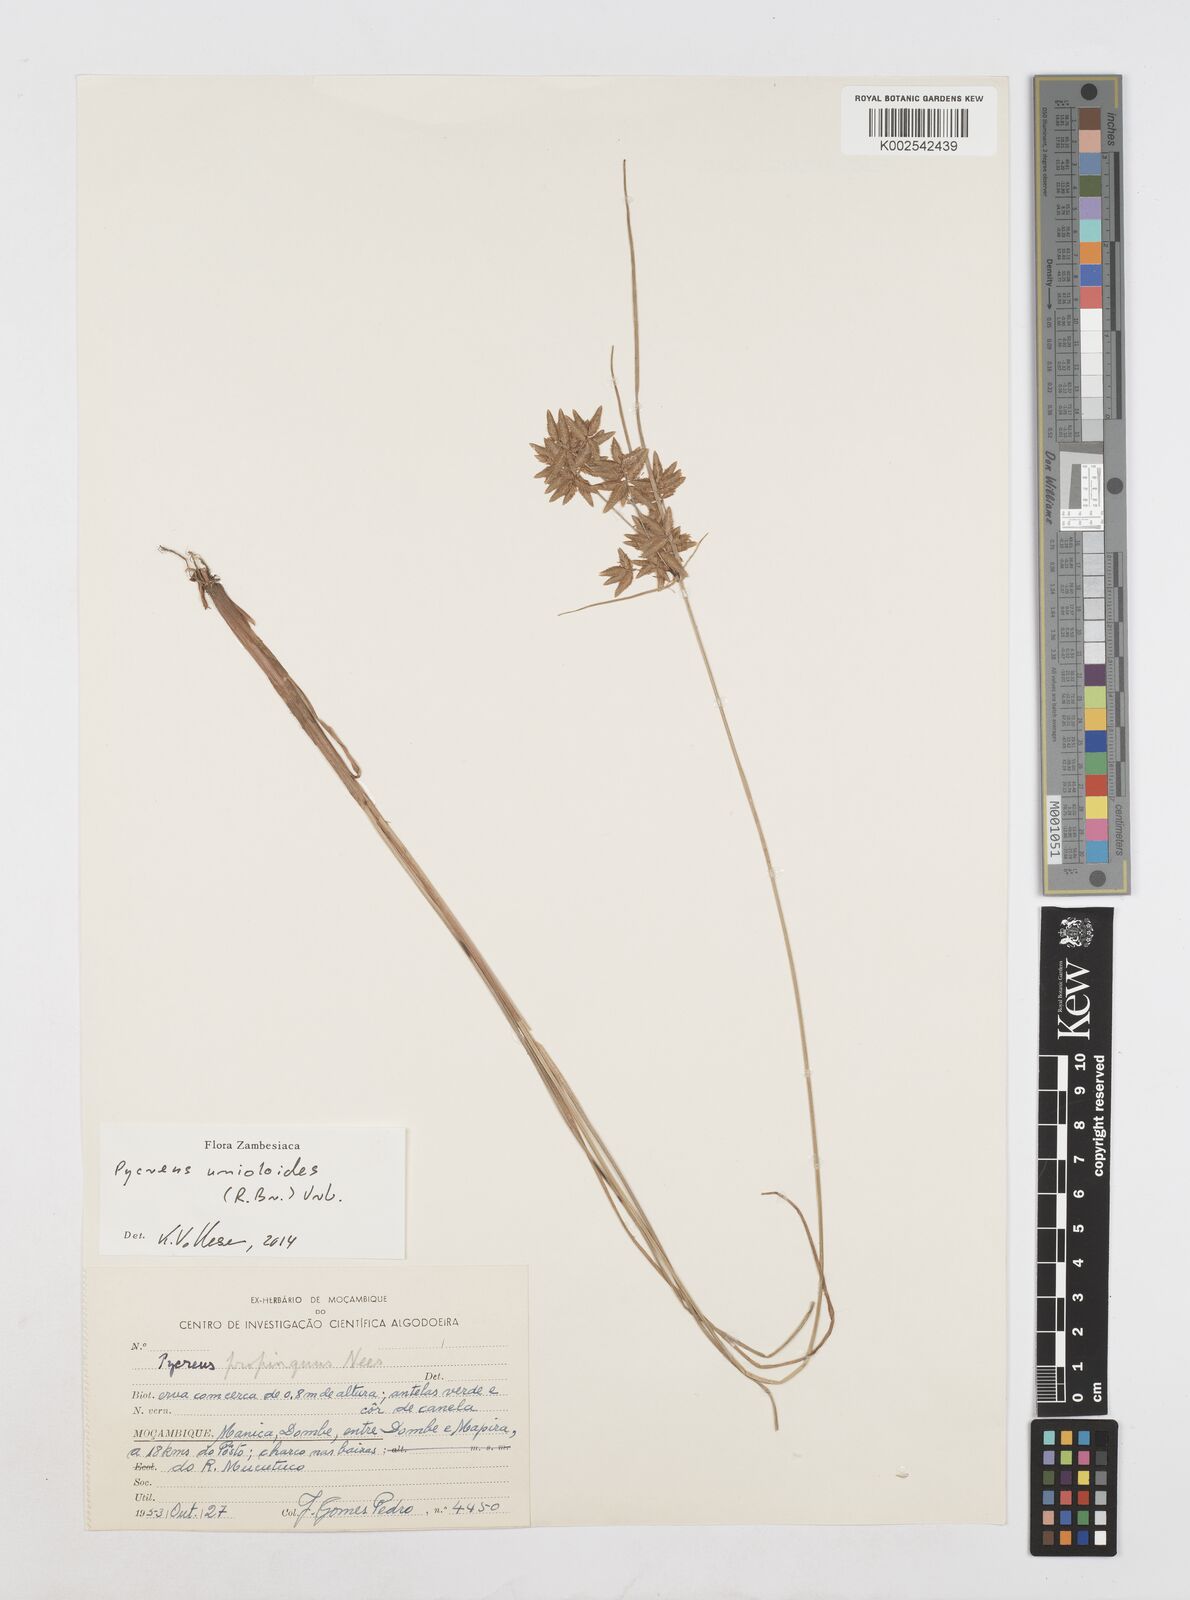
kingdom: Plantae
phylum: Tracheophyta
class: Liliopsida
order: Poales
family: Cyperaceae
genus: Cyperus
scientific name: Cyperus unioloides
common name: Uniola flatsedge
